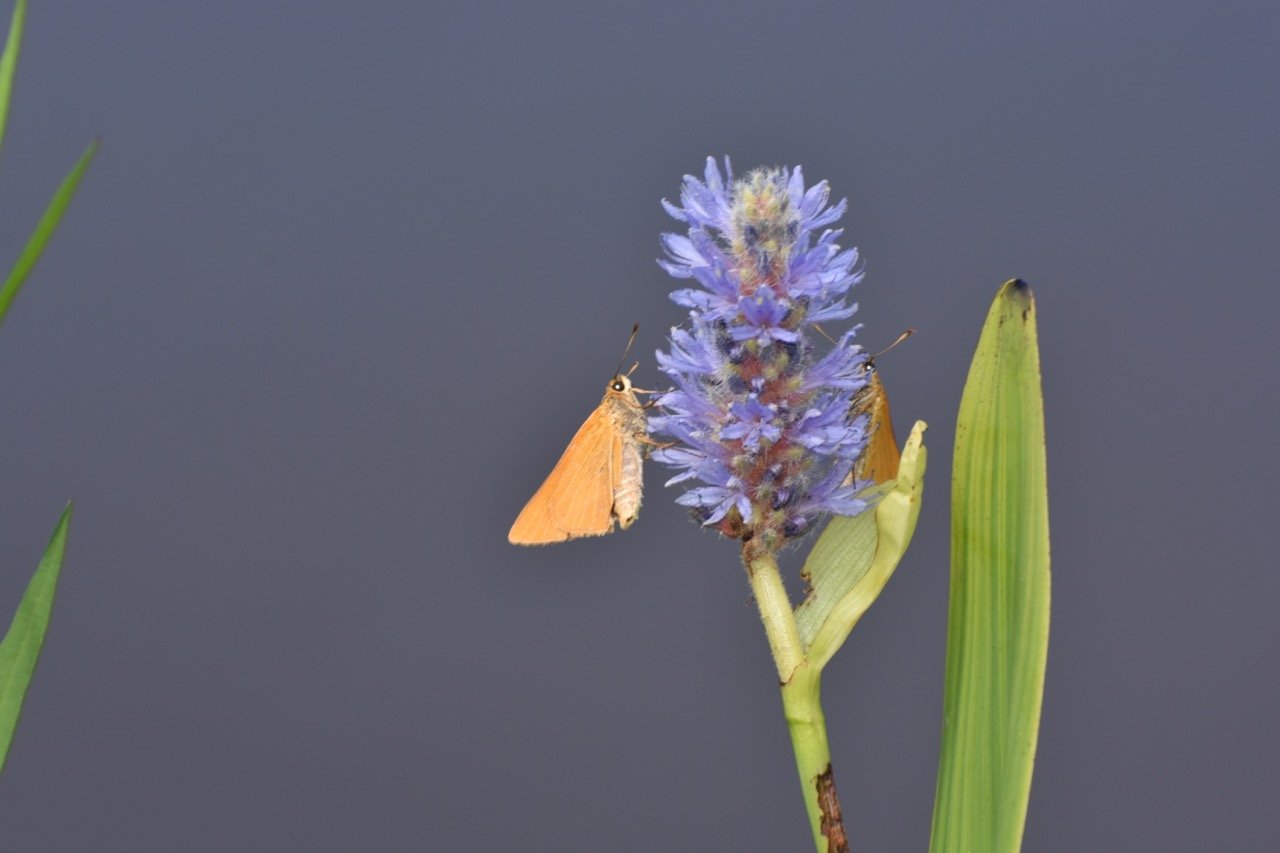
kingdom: Animalia
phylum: Arthropoda
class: Insecta
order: Lepidoptera
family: Hesperiidae
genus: Problema
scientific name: Problema bulenta
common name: Rare Skipper
